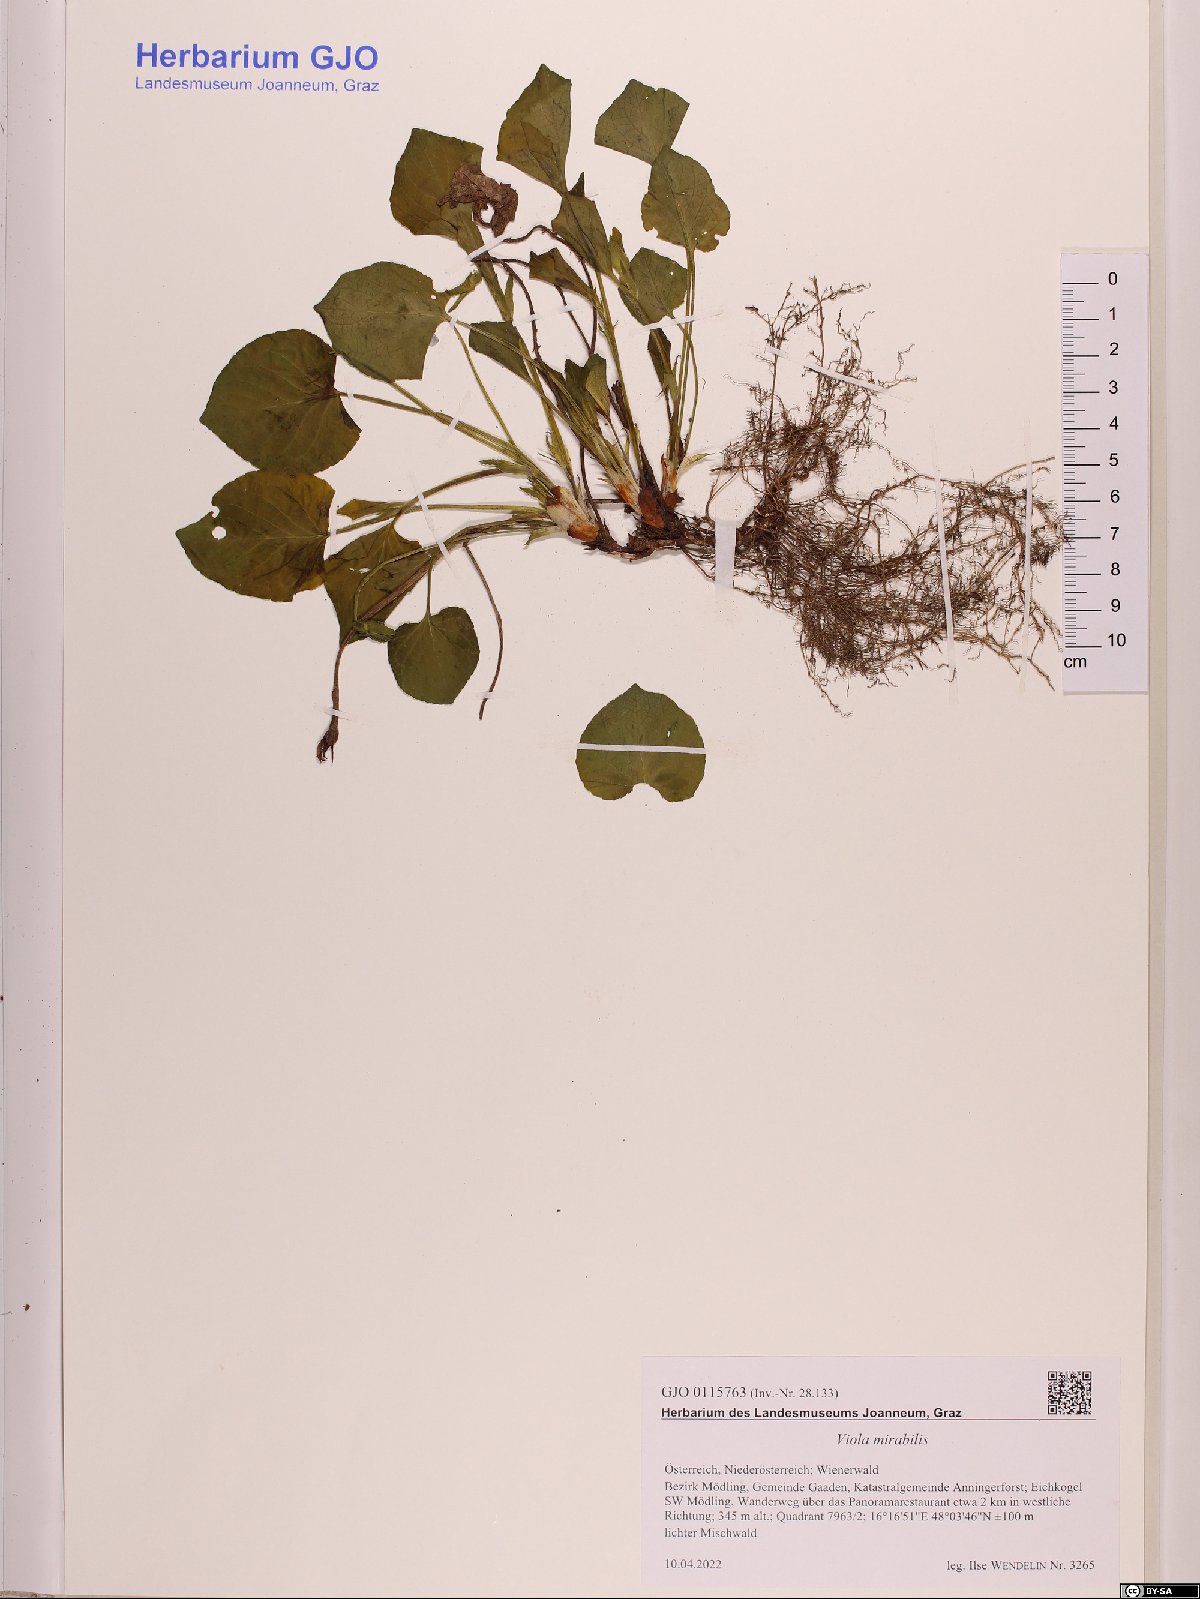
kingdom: Plantae
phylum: Tracheophyta
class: Magnoliopsida
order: Malpighiales
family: Violaceae
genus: Viola
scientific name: Viola mirabilis
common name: Wonder violet
